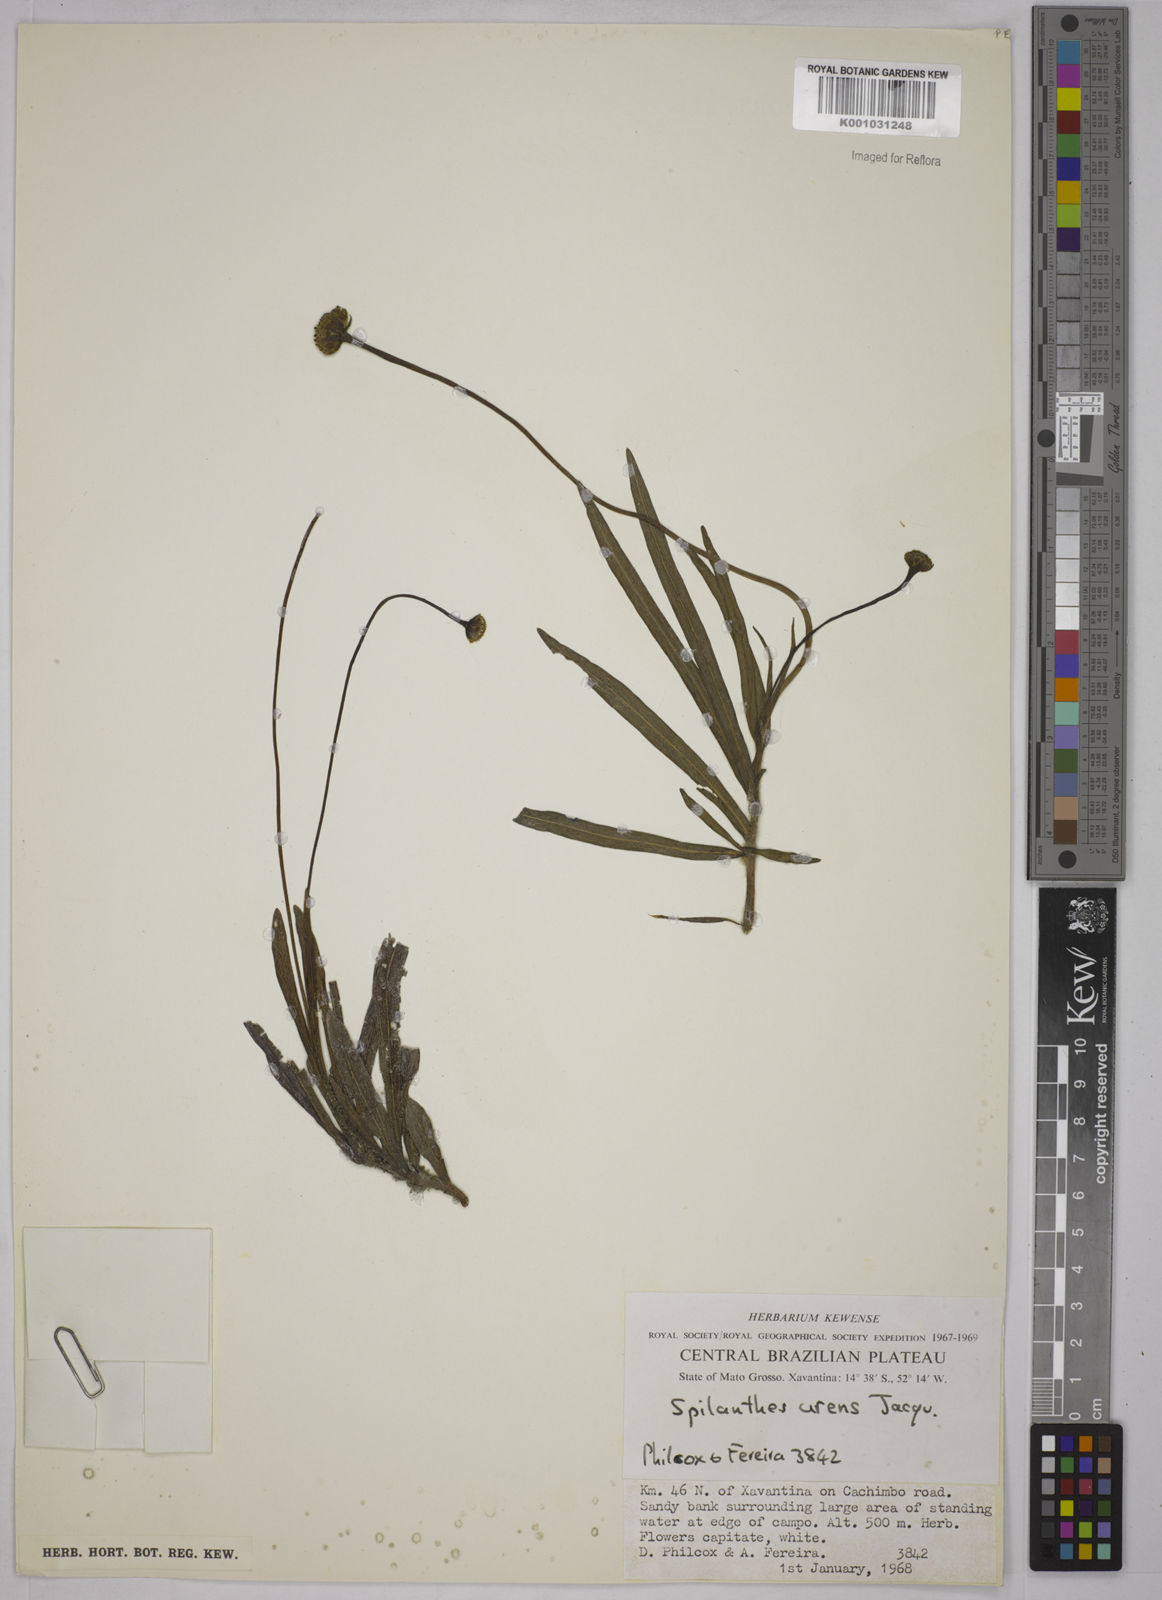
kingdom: Plantae
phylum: Tracheophyta
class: Magnoliopsida
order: Asterales
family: Asteraceae
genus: Spilanthes
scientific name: Spilanthes urens
